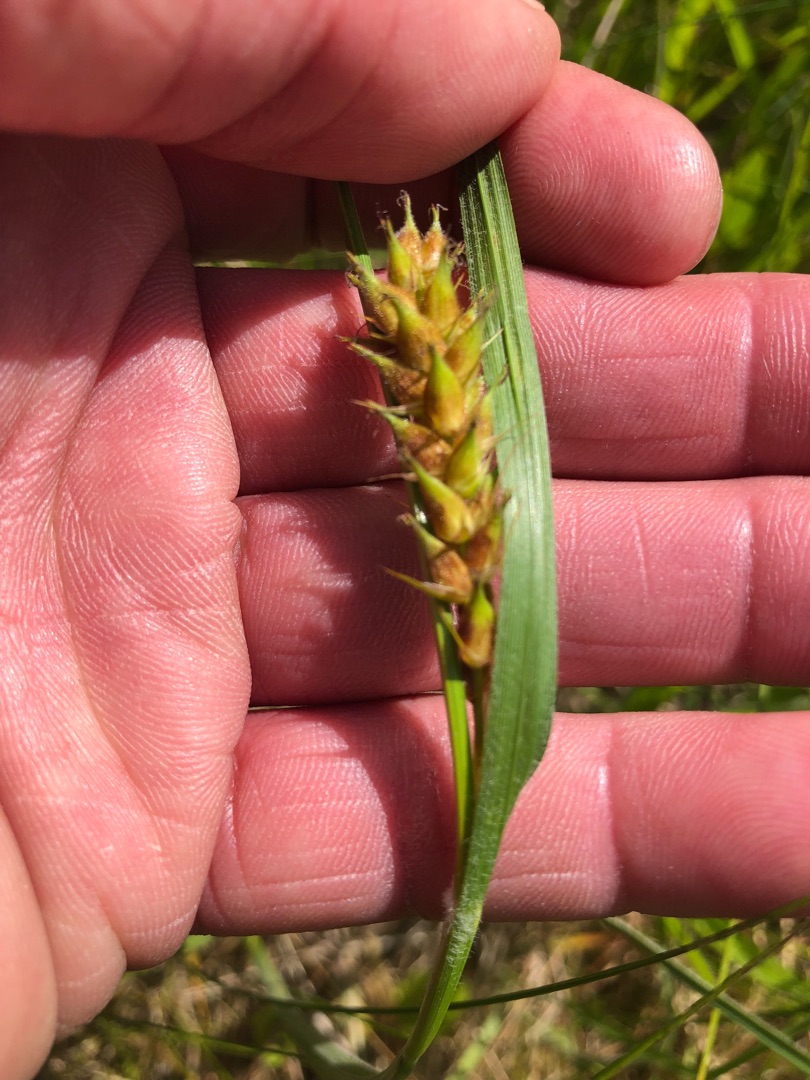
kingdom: Plantae
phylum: Tracheophyta
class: Liliopsida
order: Poales
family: Cyperaceae
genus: Carex
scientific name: Carex hirta
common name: Håret star
